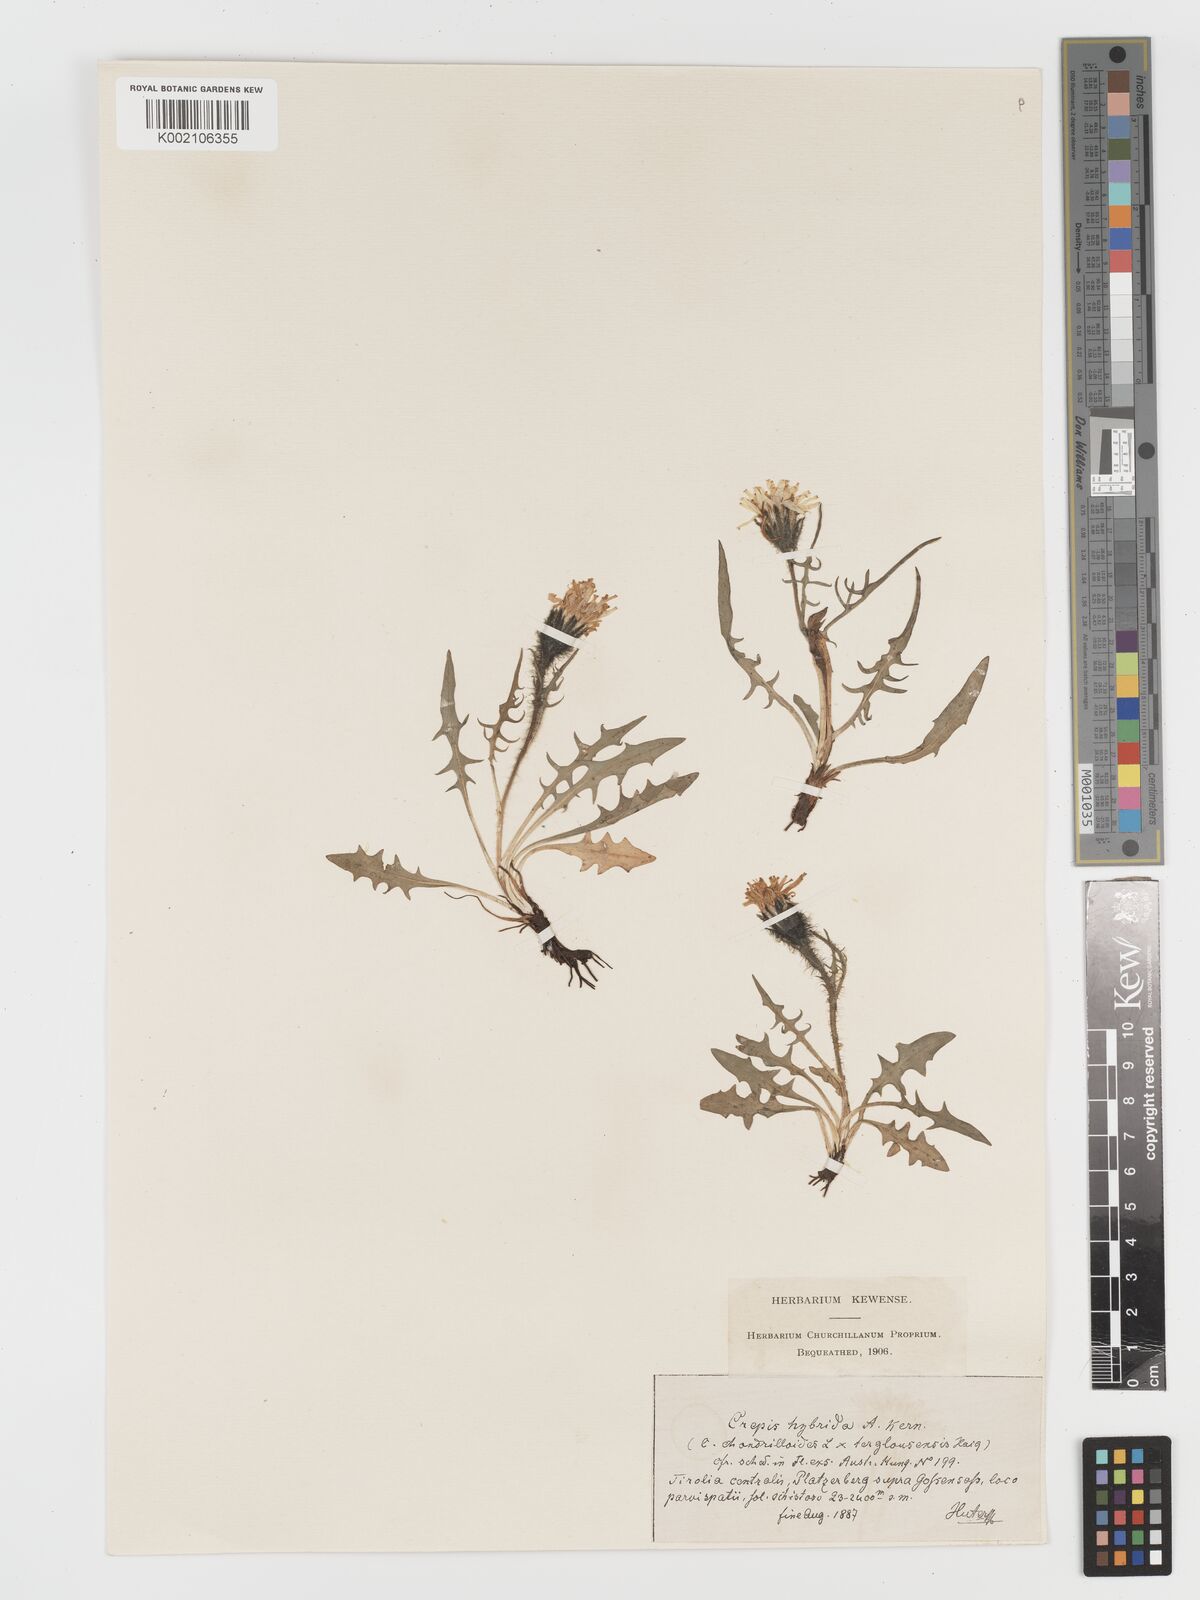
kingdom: Plantae
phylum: Tracheophyta
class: Magnoliopsida
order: Asterales
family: Asteraceae
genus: Crepis
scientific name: Crepis hybrida
